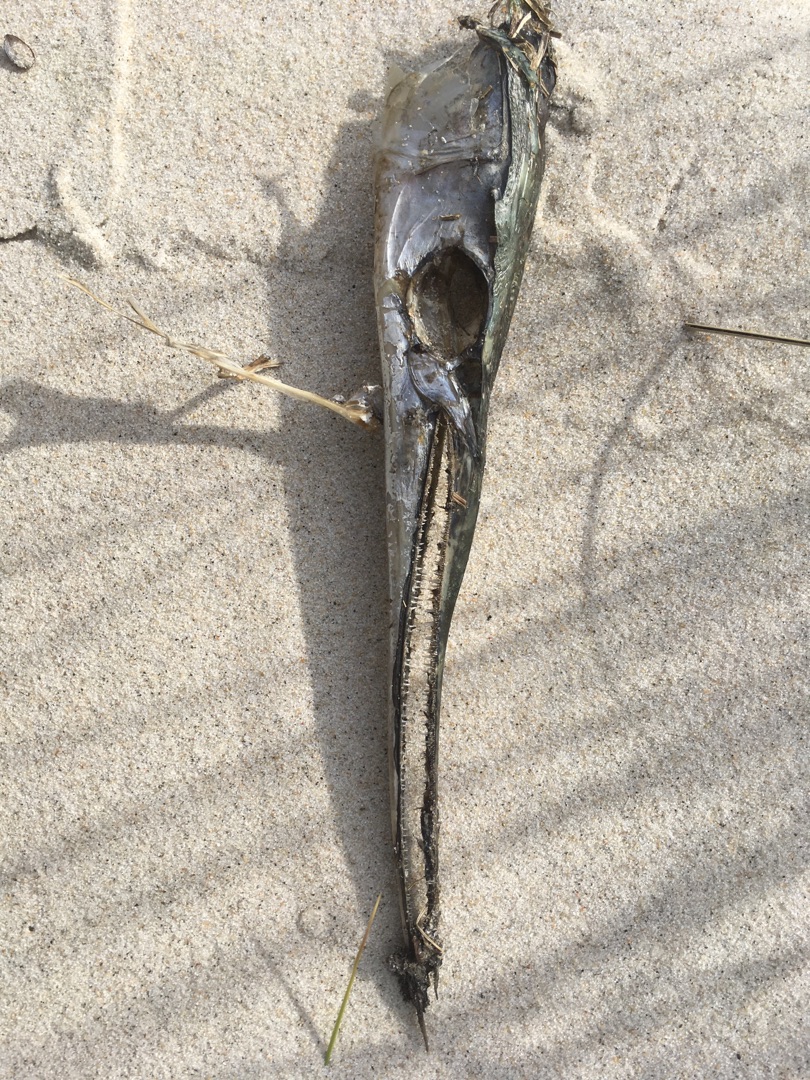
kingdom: Animalia
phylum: Chordata
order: Beloniformes
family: Belonidae
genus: Belone
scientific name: Belone belone
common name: Hornfisk
